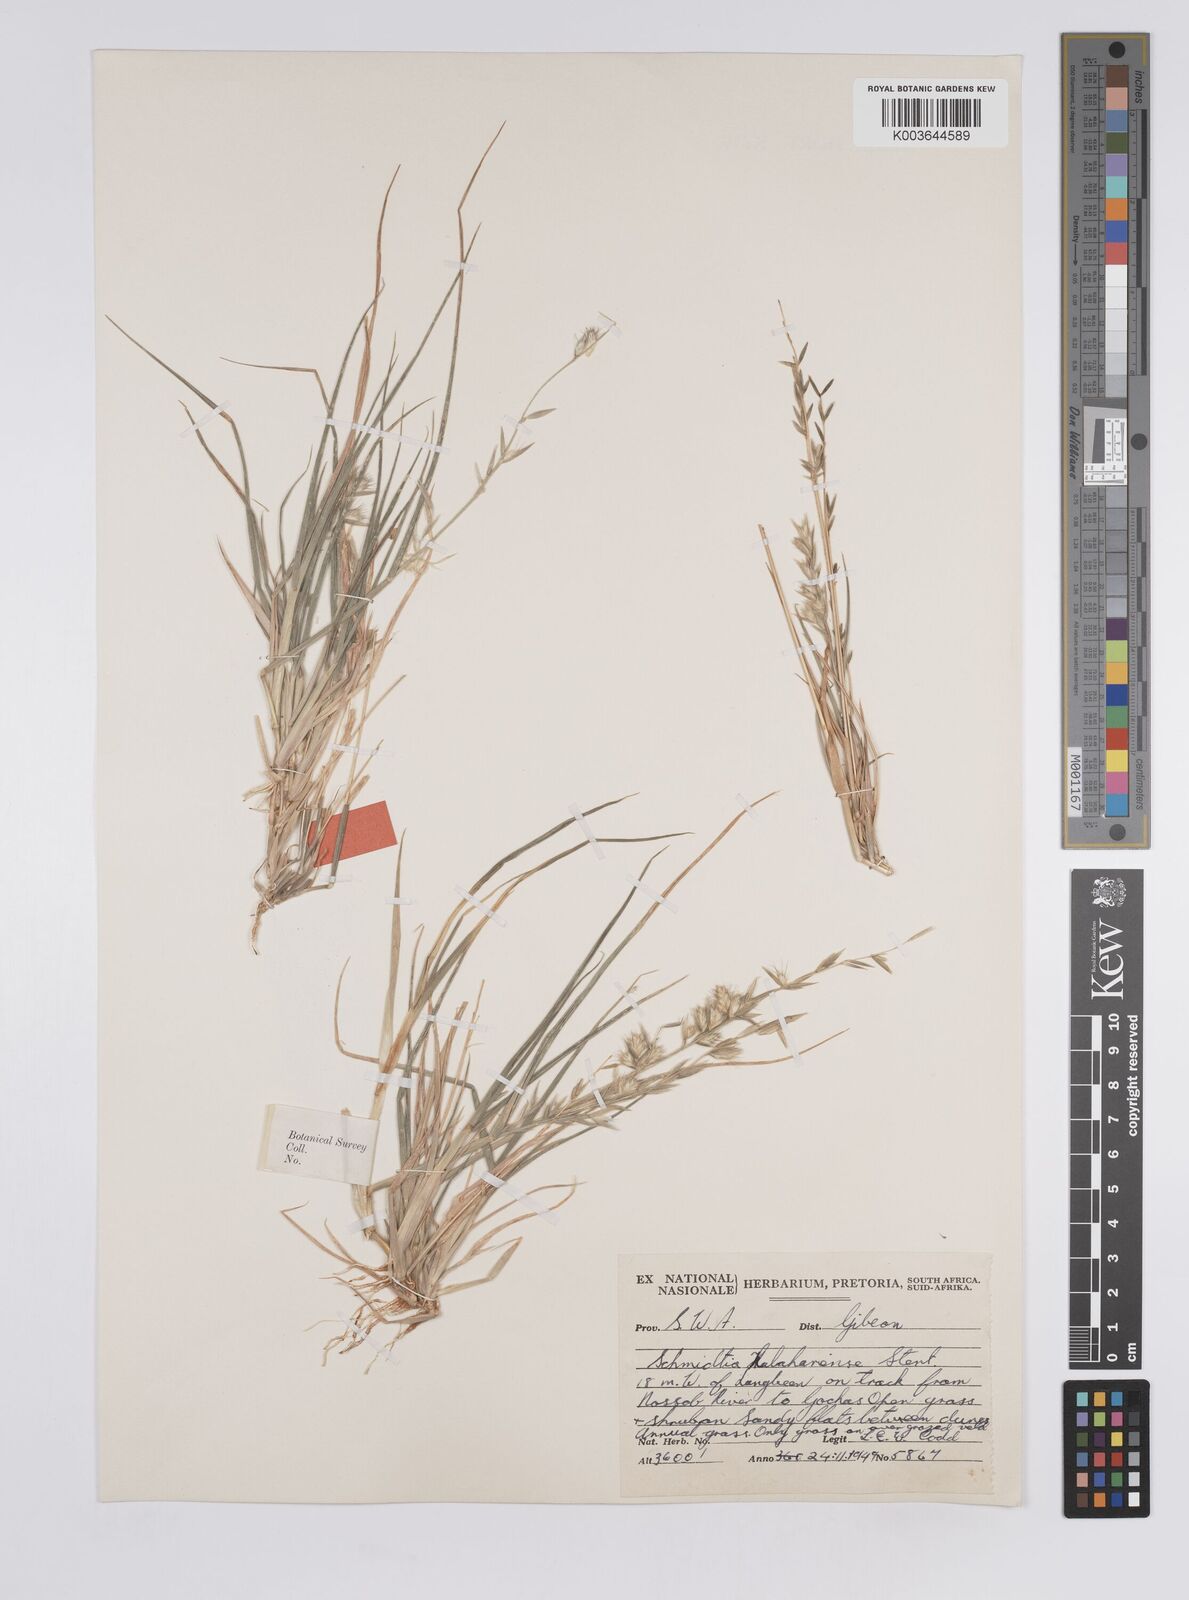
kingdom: Plantae
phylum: Tracheophyta
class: Liliopsida
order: Poales
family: Poaceae
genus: Schmidtia
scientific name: Schmidtia kalahariensis
